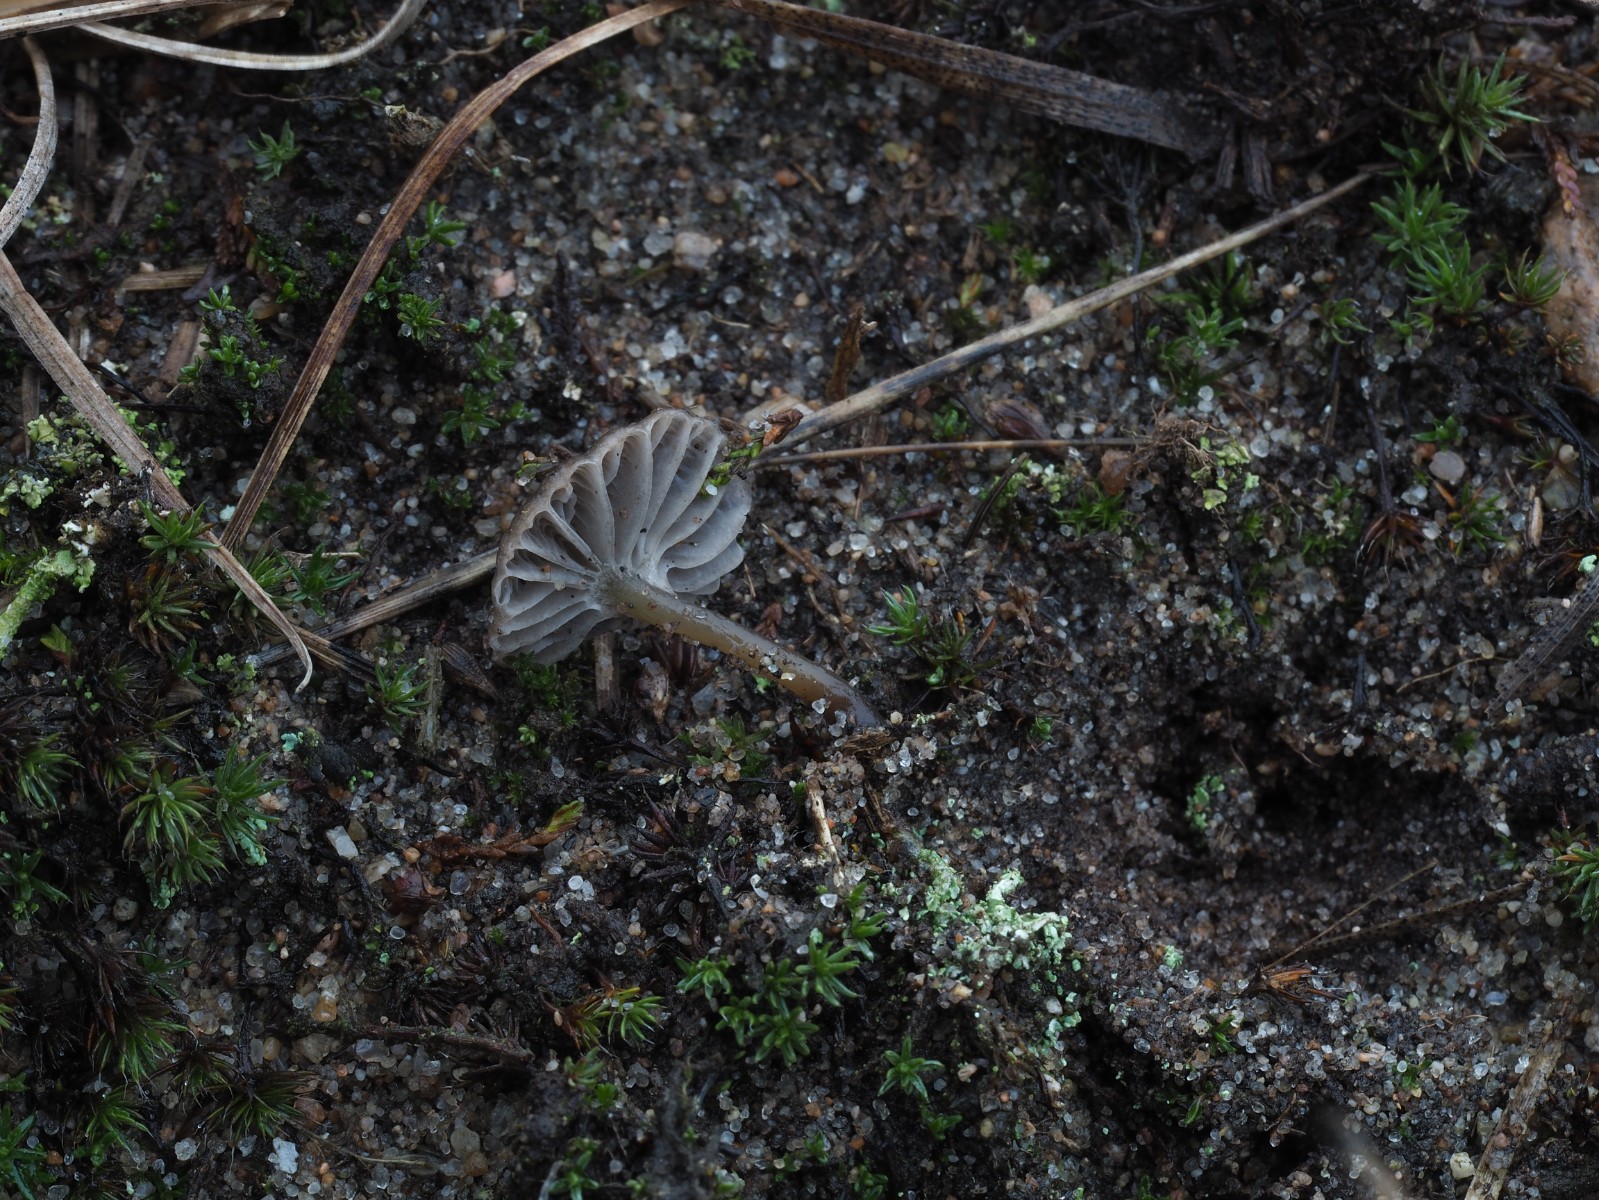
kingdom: Fungi
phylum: Basidiomycota
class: Agaricomycetes
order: Agaricales
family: Mycenaceae
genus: Mycena
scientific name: Mycena
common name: huesvamp
